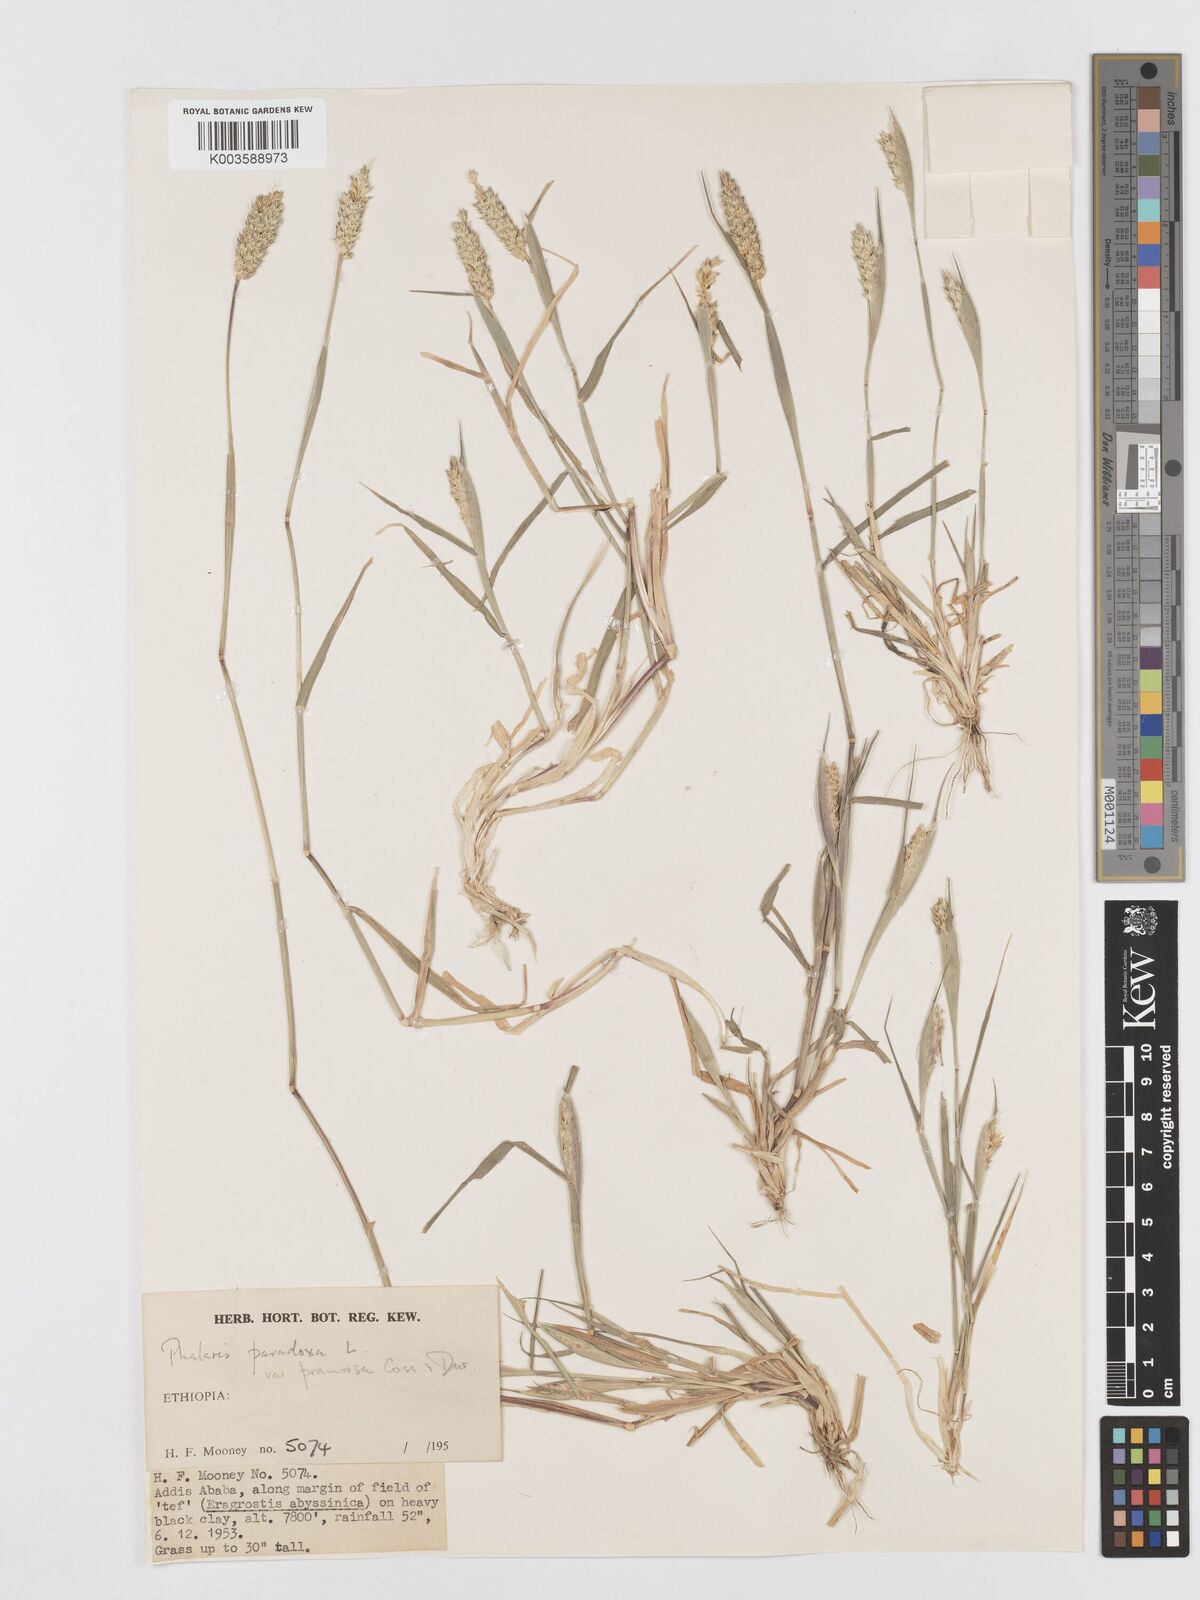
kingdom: Plantae
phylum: Tracheophyta
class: Liliopsida
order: Poales
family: Poaceae
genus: Phalaris
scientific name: Phalaris paradoxa
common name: Awned canary-grass
